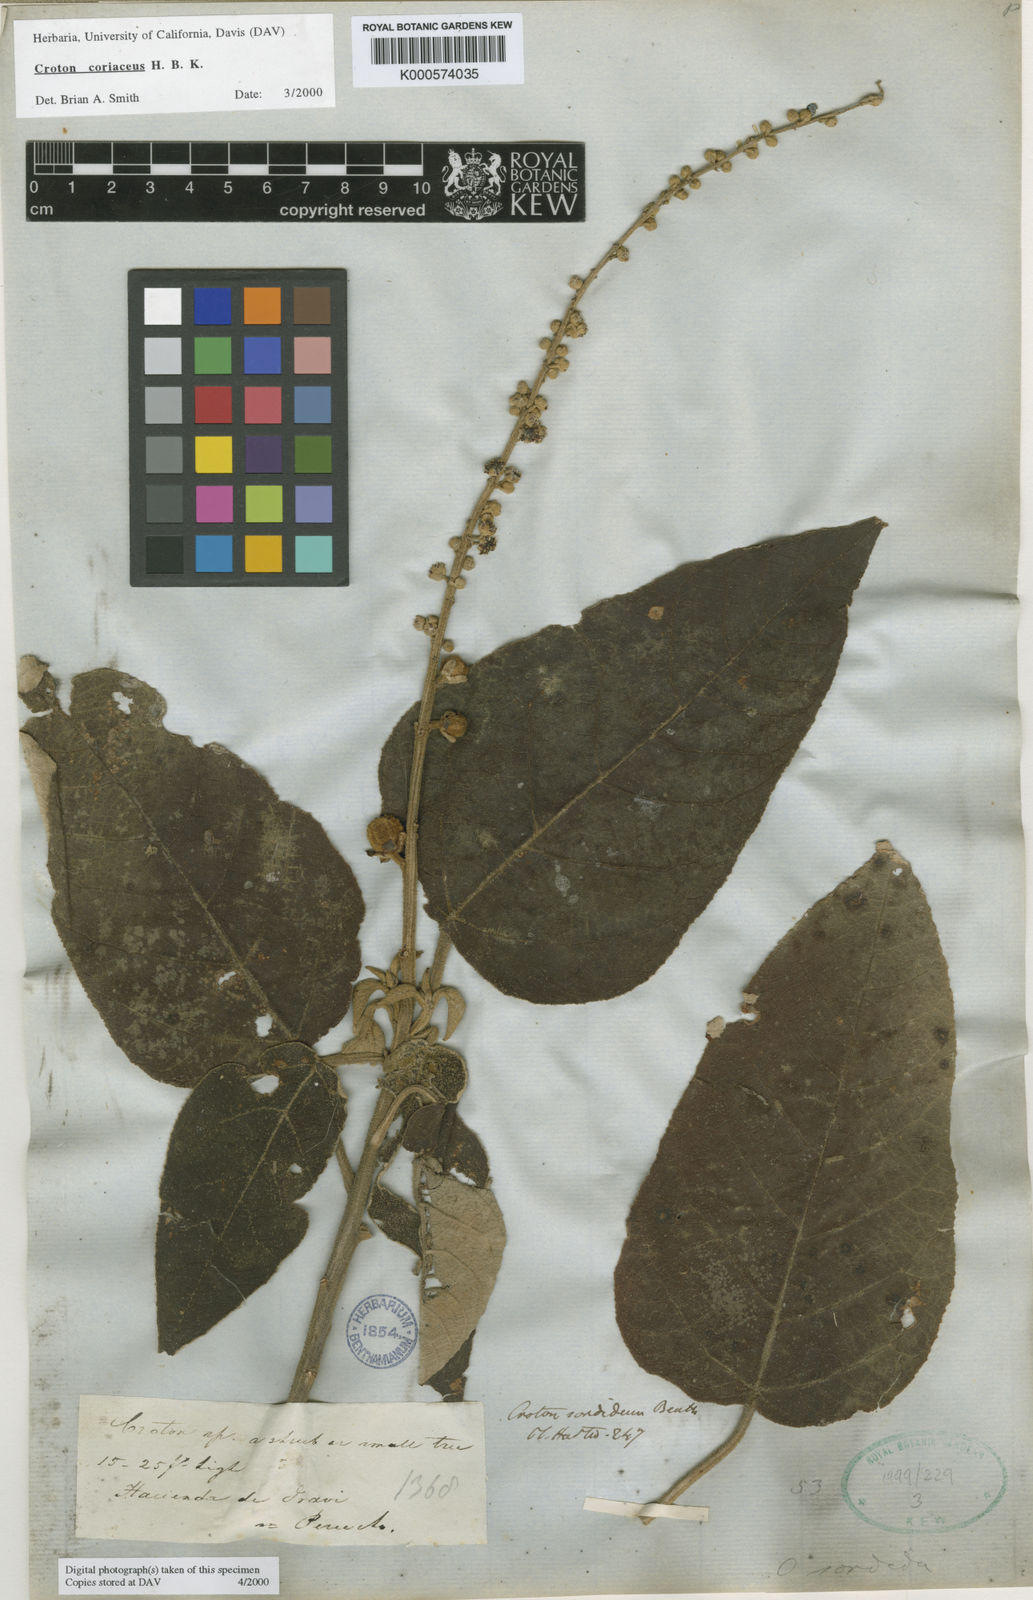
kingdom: Plantae
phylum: Tracheophyta
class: Magnoliopsida
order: Malpighiales
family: Euphorbiaceae
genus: Croton
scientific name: Croton coriaceus
